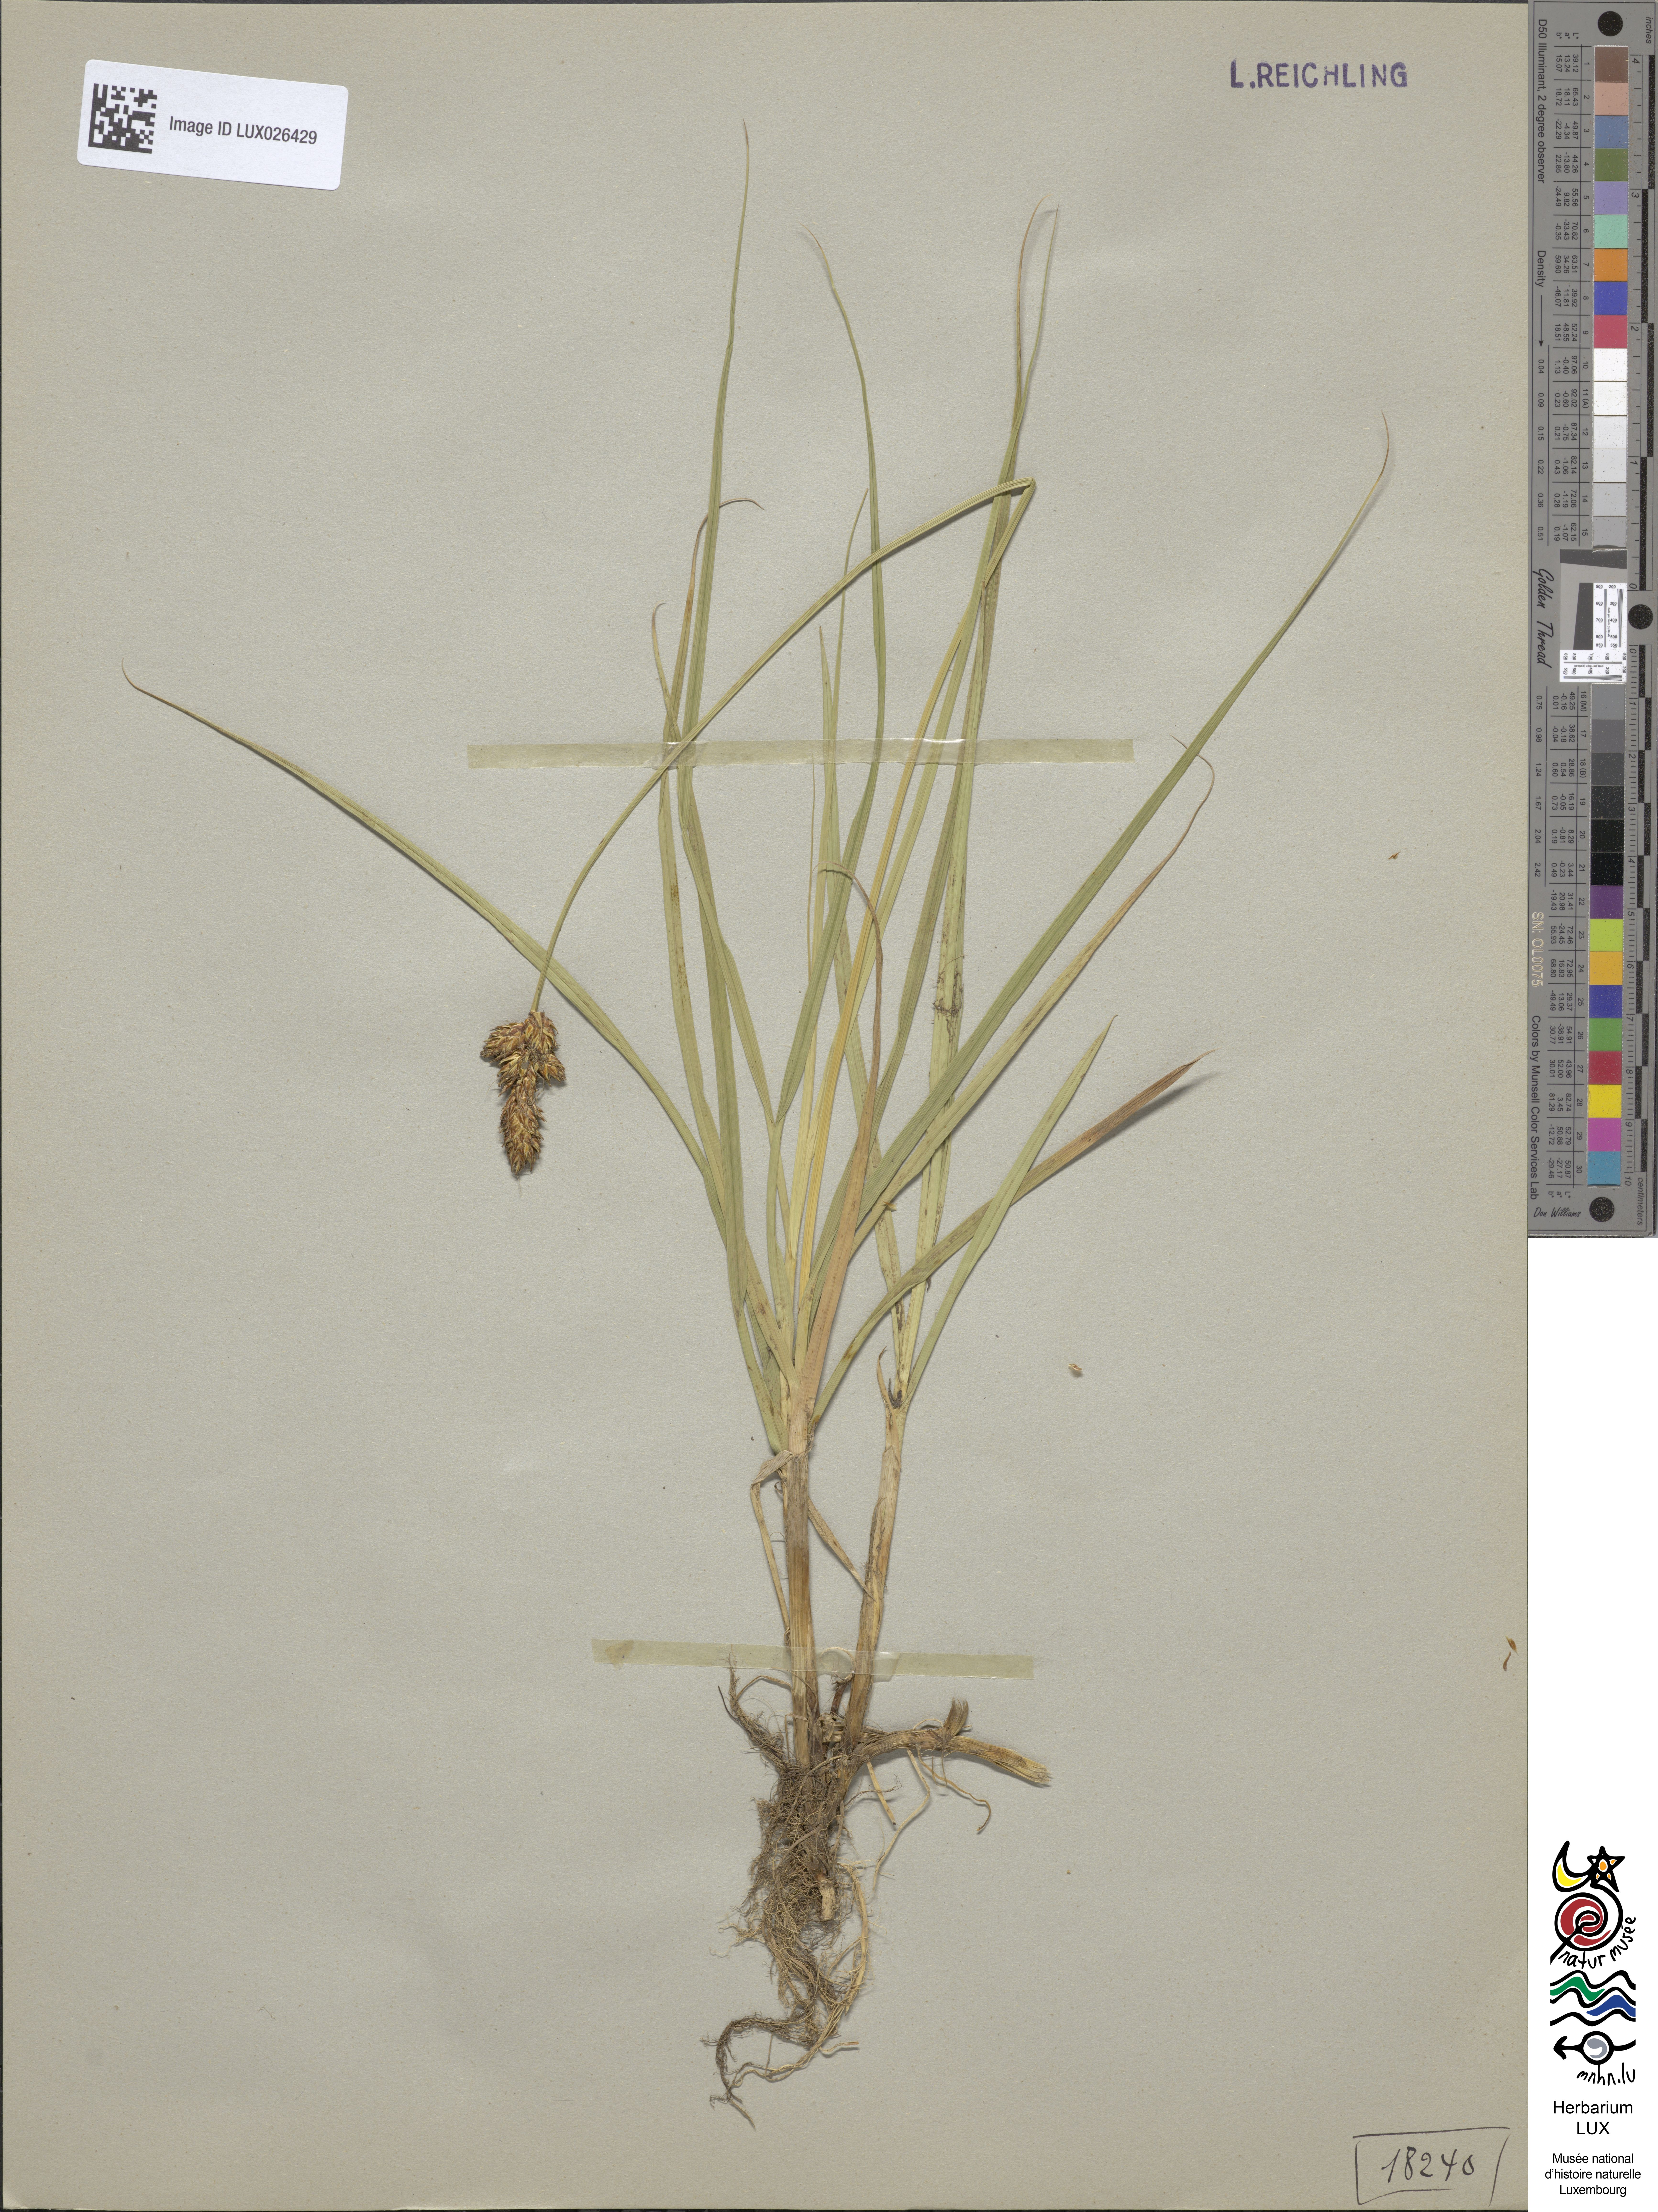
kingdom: Plantae
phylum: Tracheophyta
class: Liliopsida
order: Poales
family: Cyperaceae
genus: Carex
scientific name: Carex disticha
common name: Brown sedge
